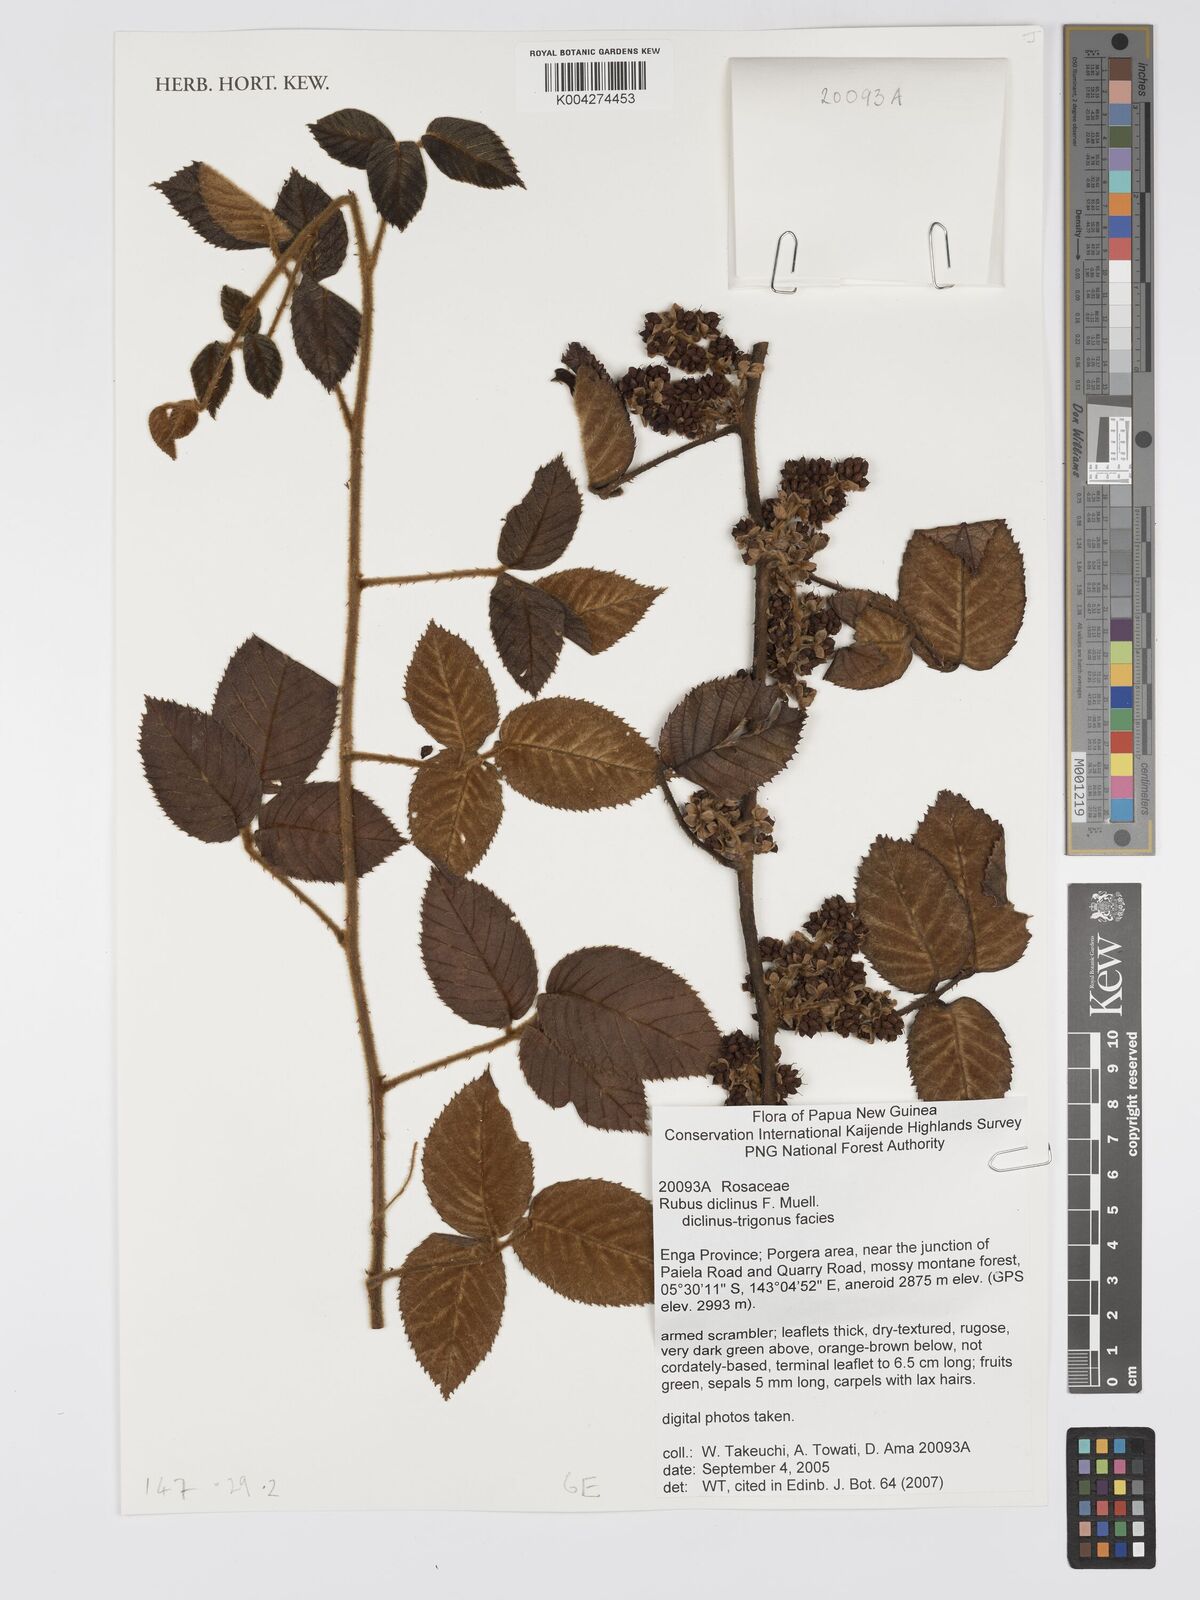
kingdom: Plantae
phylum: Tracheophyta
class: Magnoliopsida
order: Rosales
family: Rosaceae
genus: Rubus
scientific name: Rubus diclinis
